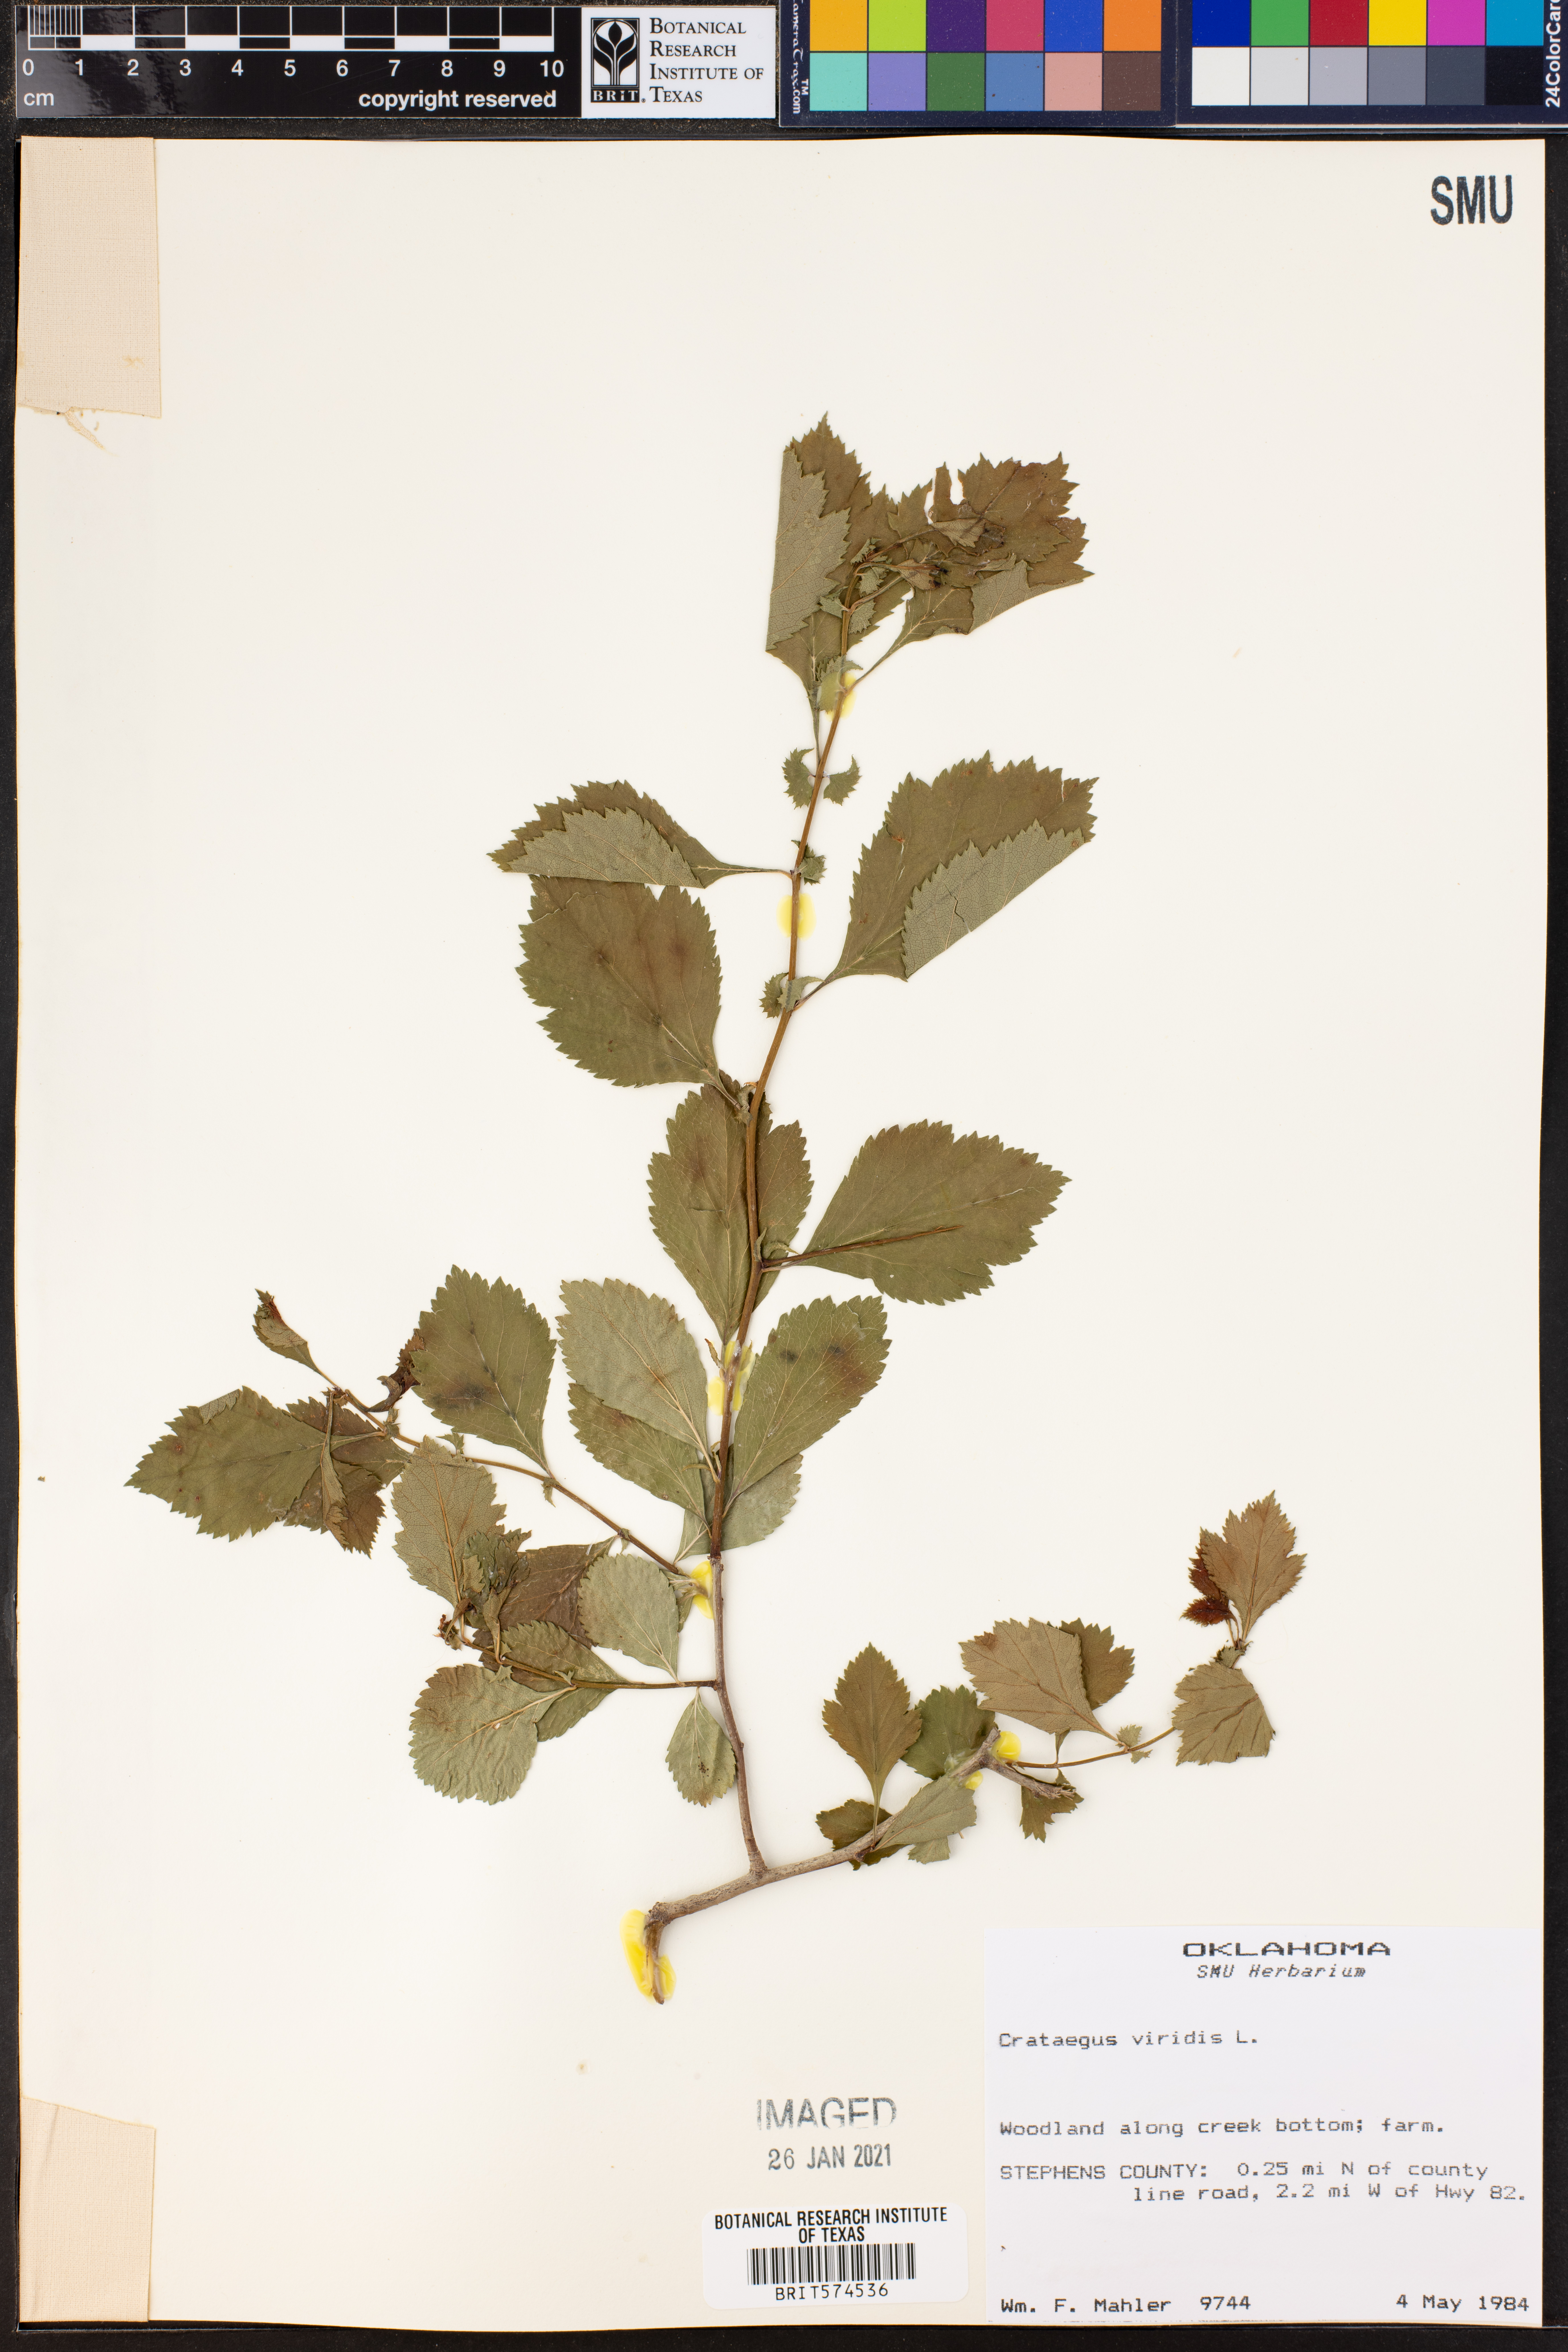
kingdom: Plantae
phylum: Tracheophyta
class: Magnoliopsida
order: Rosales
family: Rosaceae
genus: Crataegus
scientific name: Crataegus viridis
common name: Southernthorn
